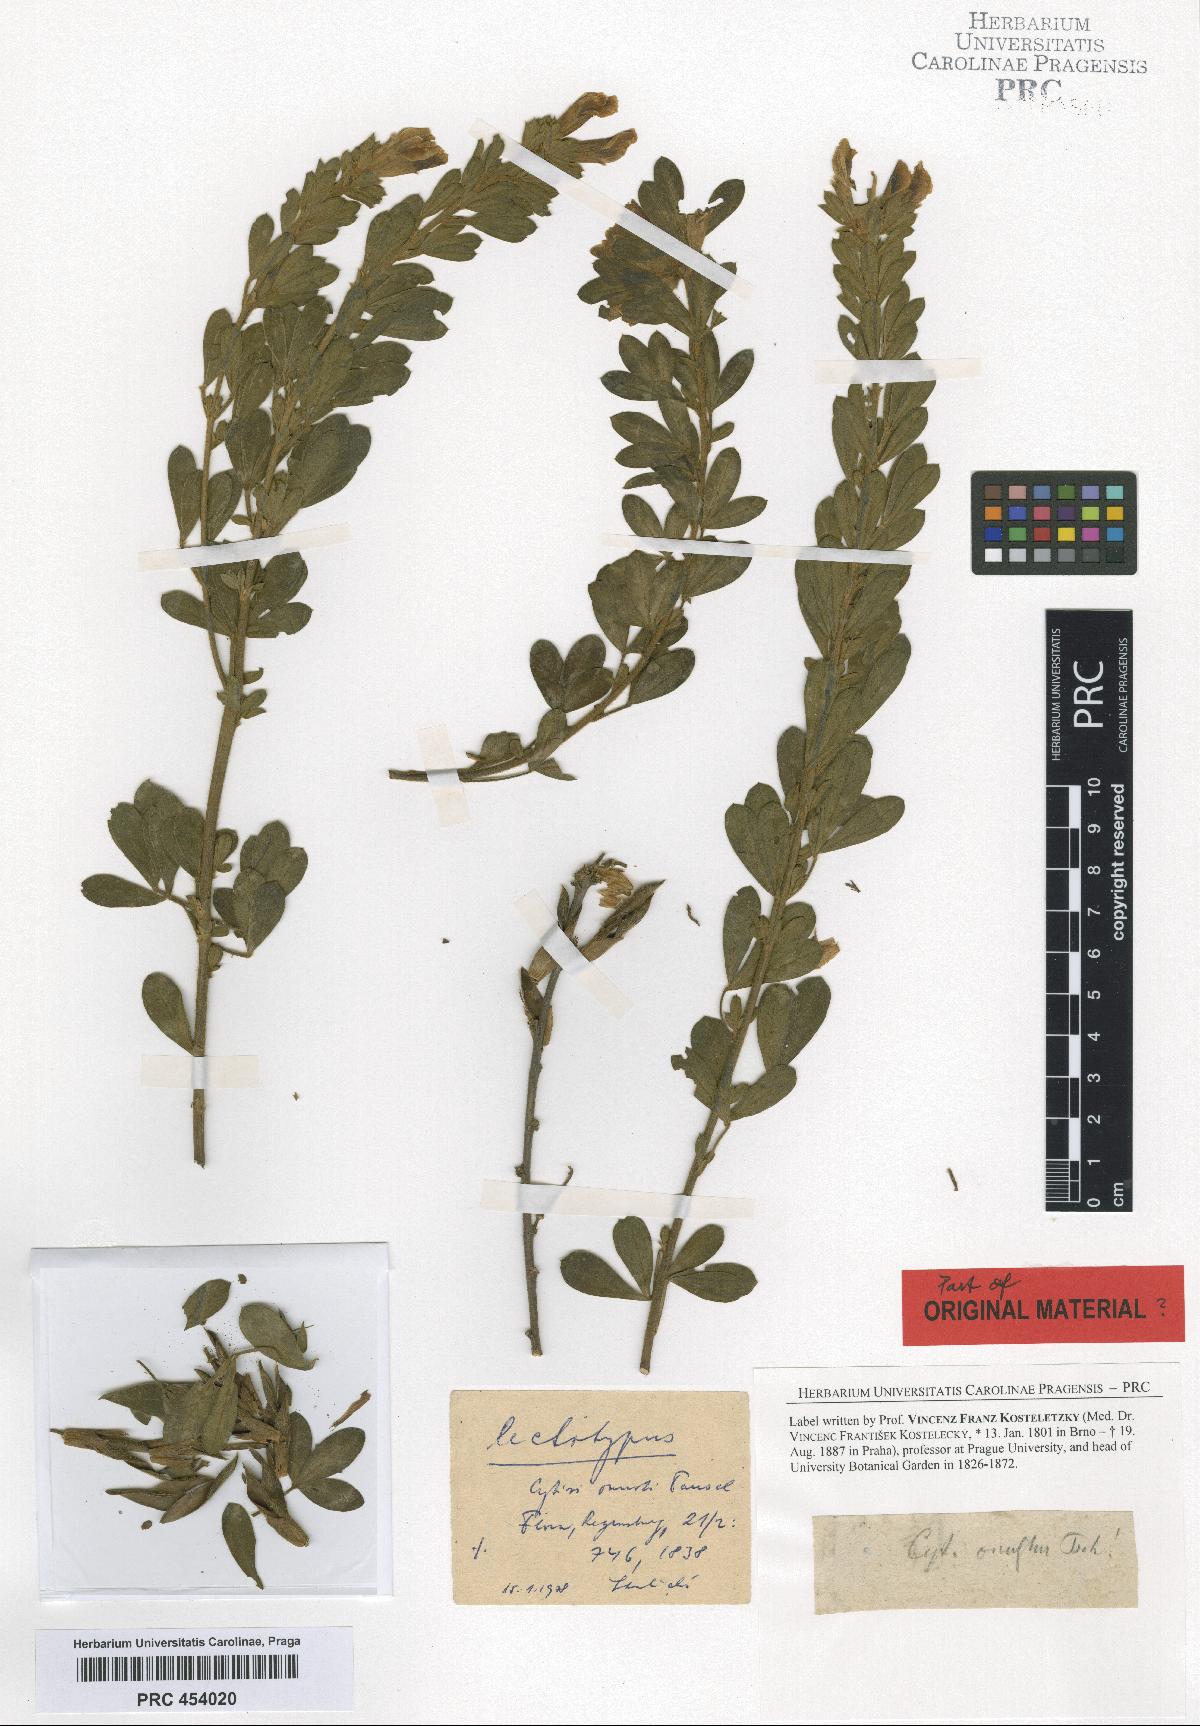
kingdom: Plantae
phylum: Tracheophyta
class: Magnoliopsida
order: Fabales
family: Fabaceae
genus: Chamaecytisus
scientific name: Chamaecytisus supinus
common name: Clustered broom
